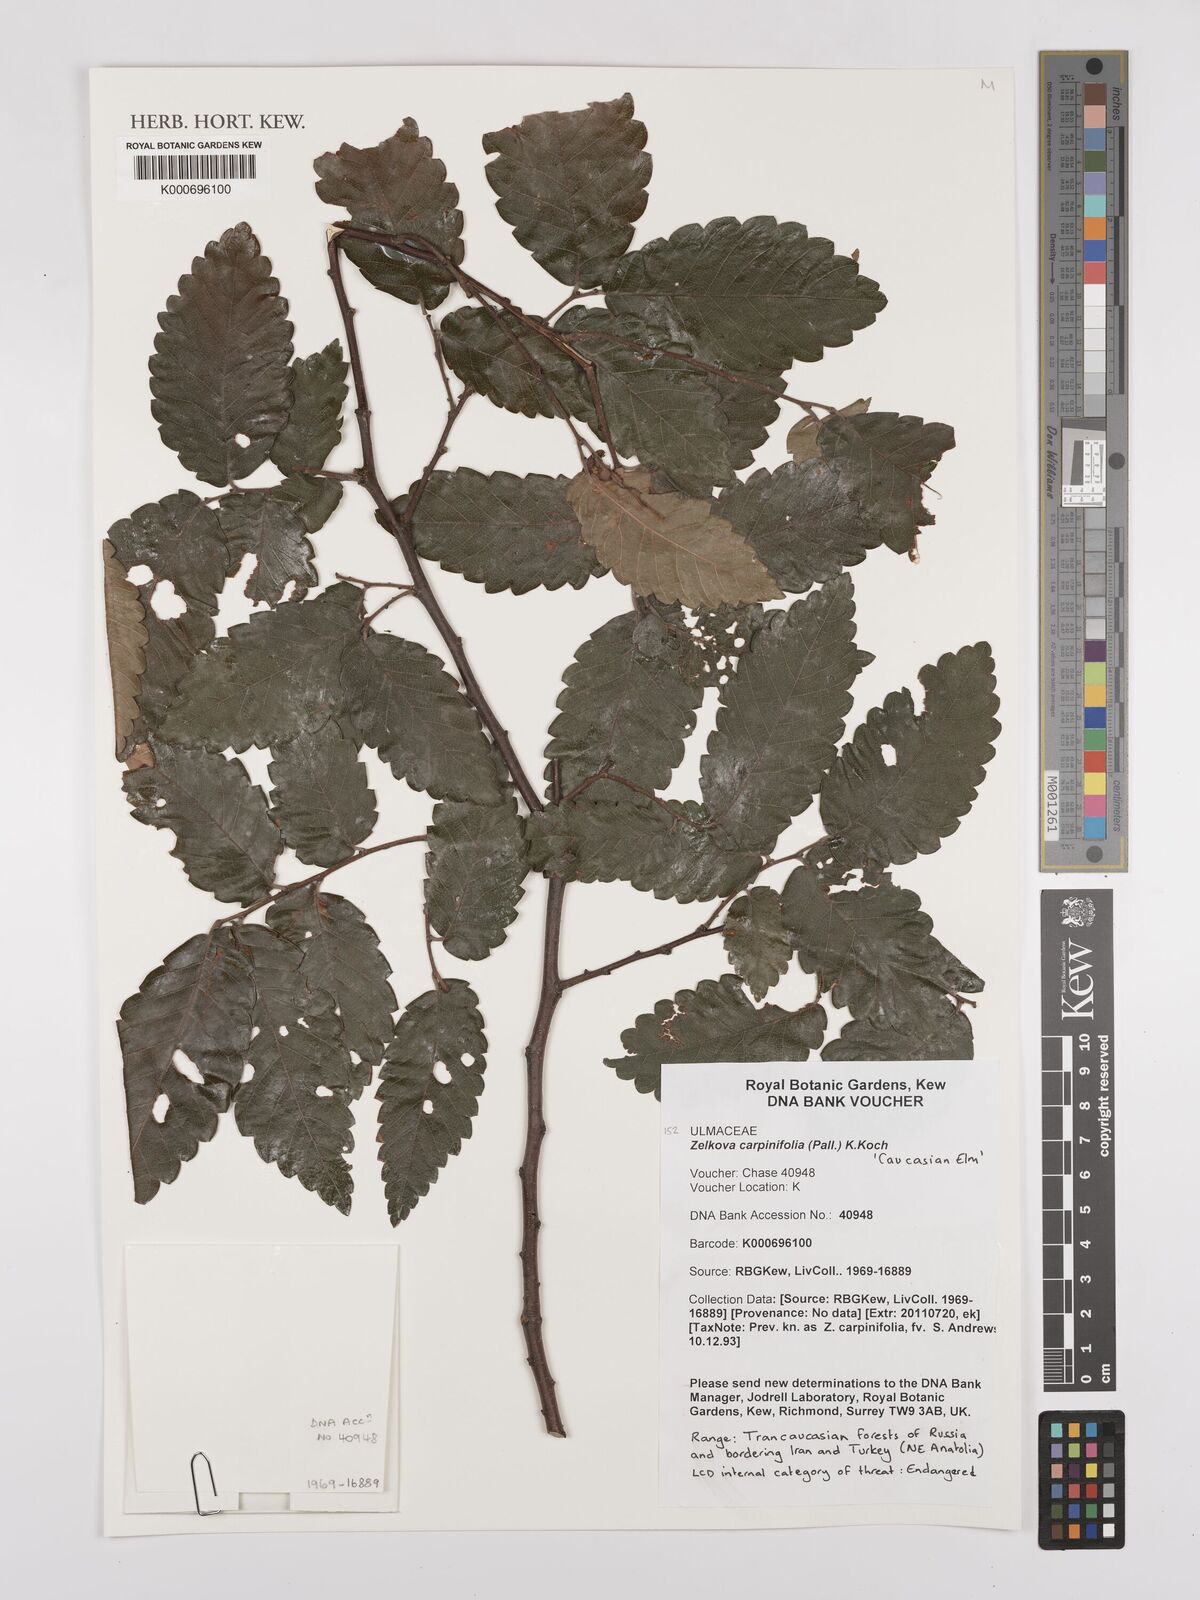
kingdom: Plantae
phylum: Tracheophyta
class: Magnoliopsida
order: Rosales
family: Ulmaceae
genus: Zelkova
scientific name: Zelkova carpinifolia
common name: Caucasian elm
